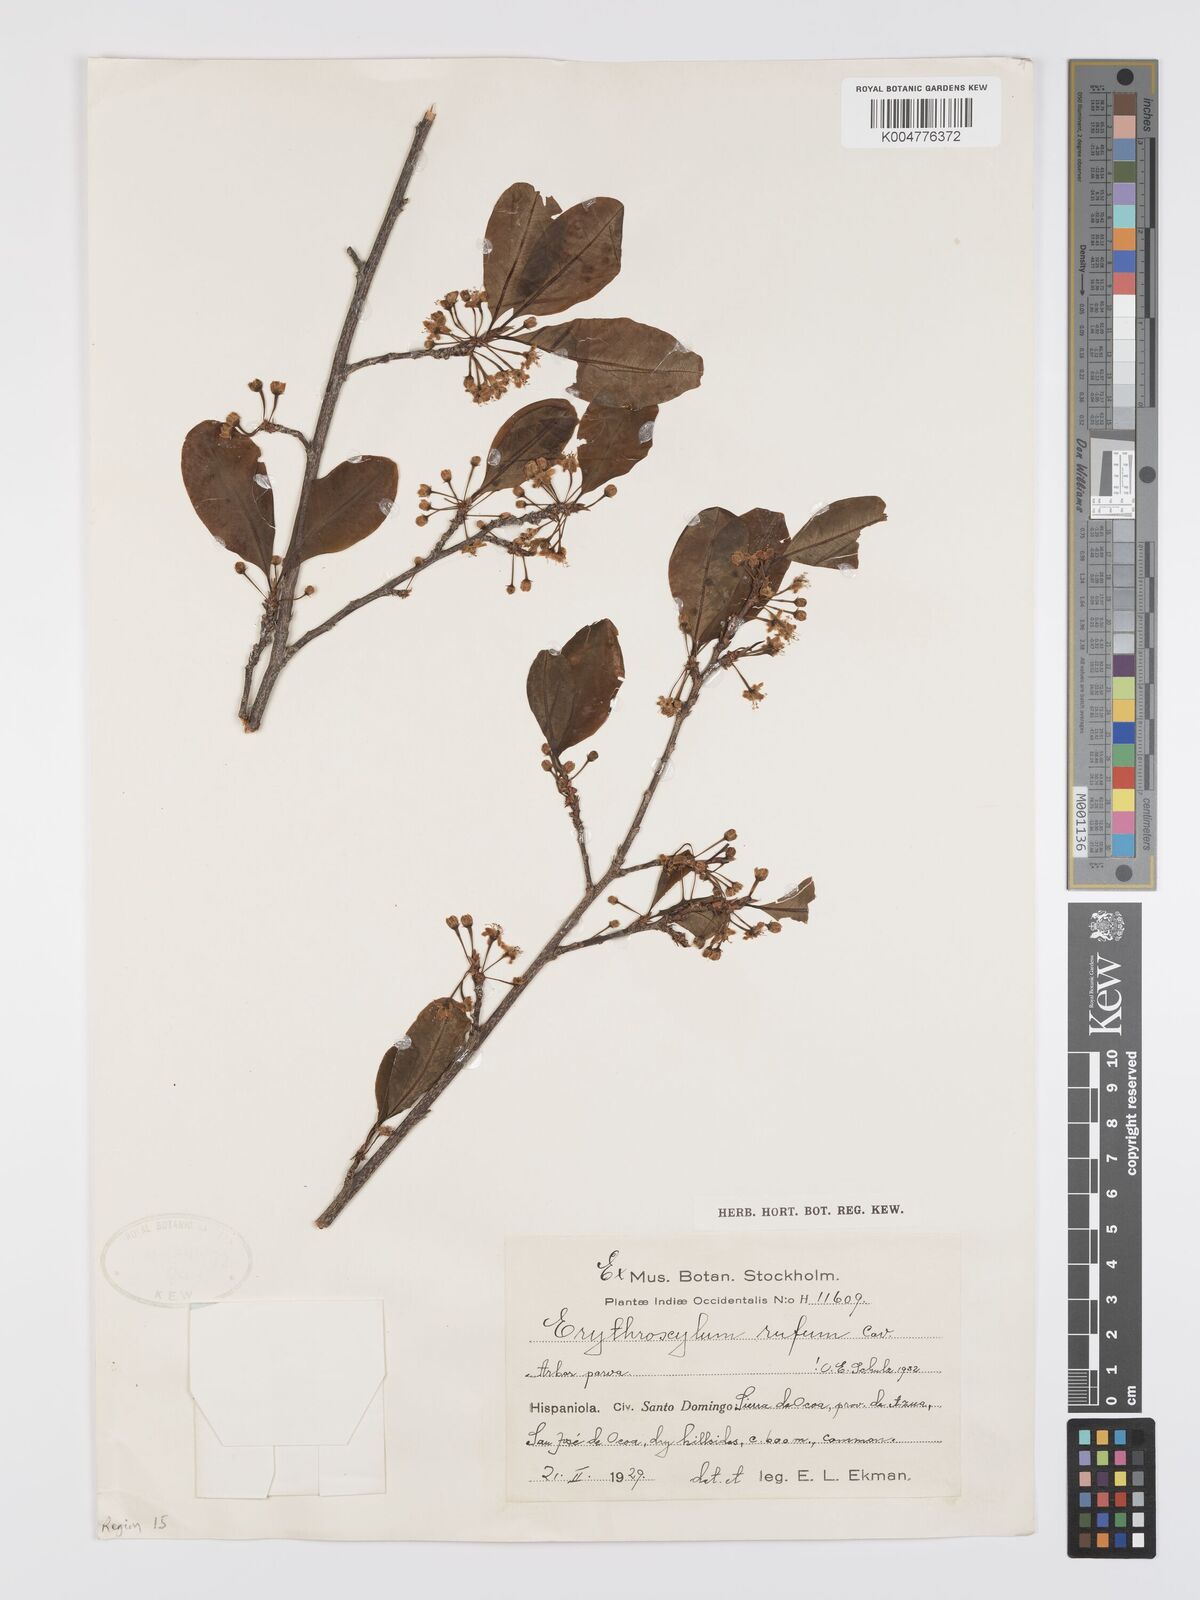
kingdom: Plantae
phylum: Tracheophyta
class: Magnoliopsida
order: Malpighiales
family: Erythroxylaceae
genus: Erythroxylum
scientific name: Erythroxylum rufum
